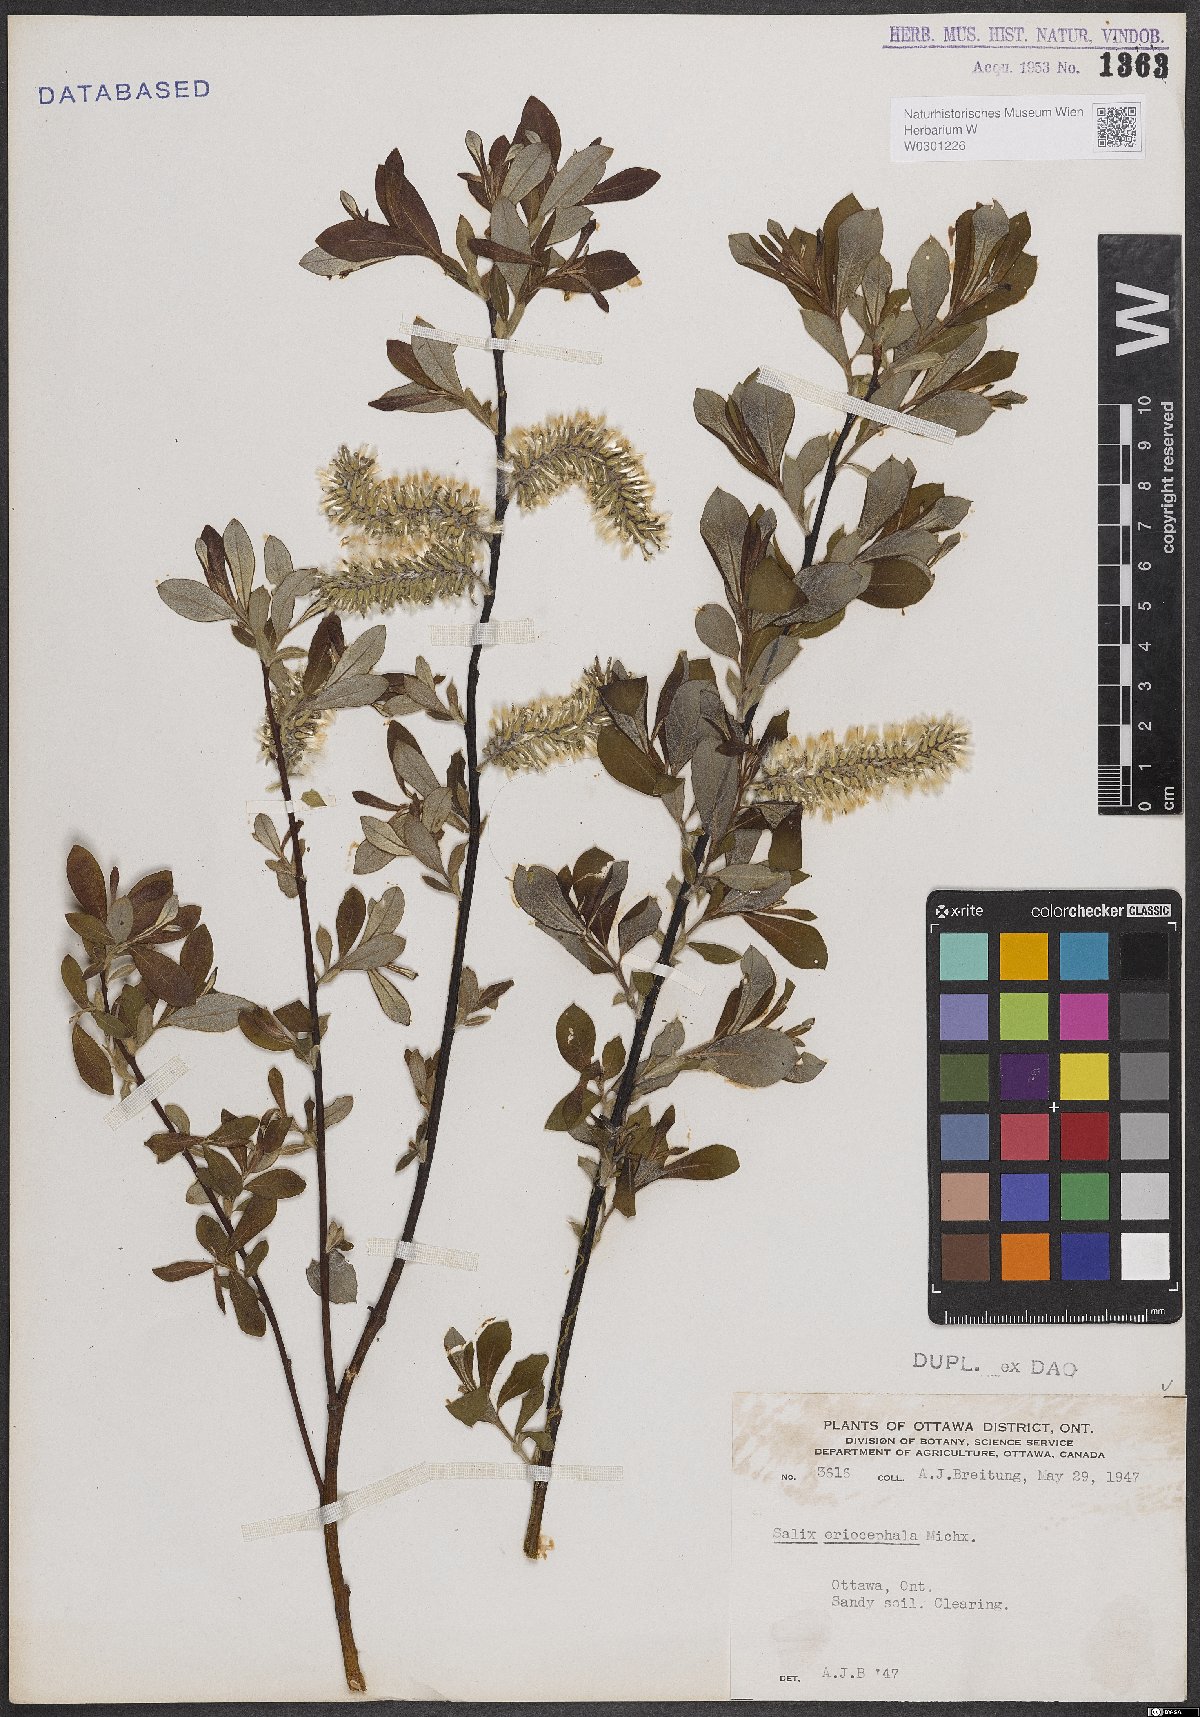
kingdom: Plantae
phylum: Tracheophyta
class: Magnoliopsida
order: Malpighiales
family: Salicaceae
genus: Salix
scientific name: Salix eriocephala
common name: Heart-leaved willow
